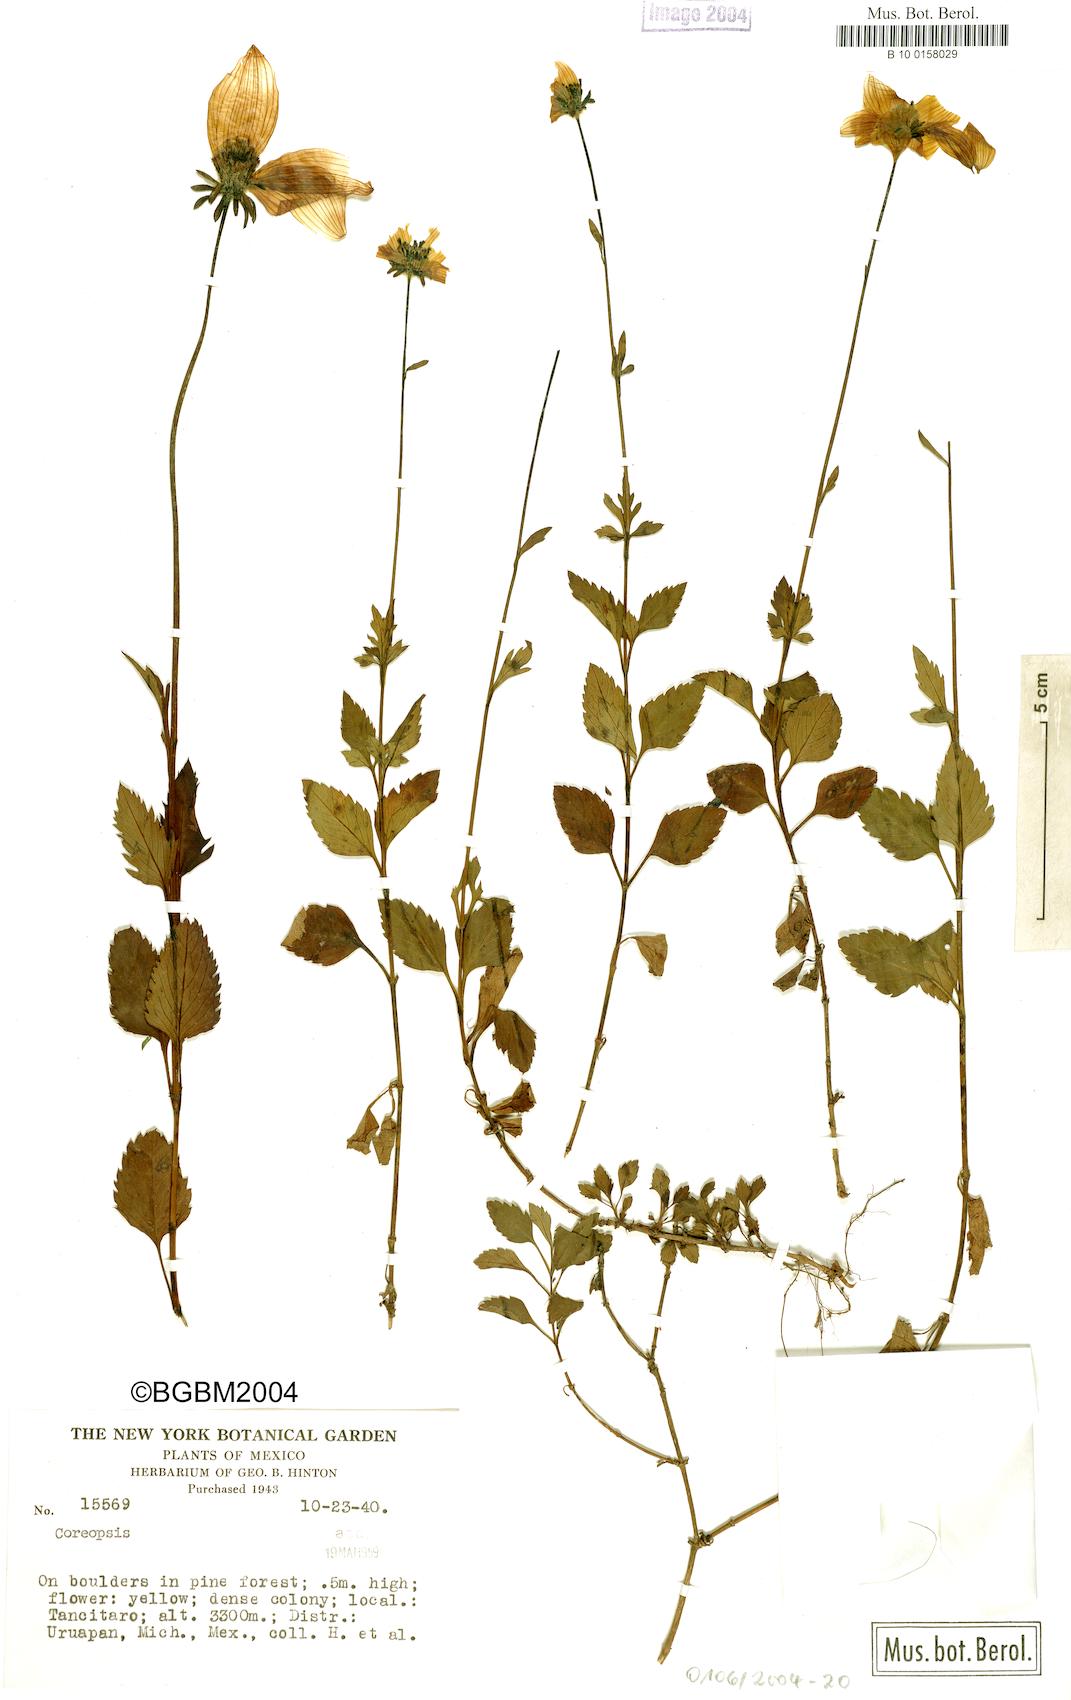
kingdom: Plantae
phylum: Tracheophyta
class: Magnoliopsida
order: Asterales
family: Asteraceae
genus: Coreopsis
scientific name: Coreopsis
